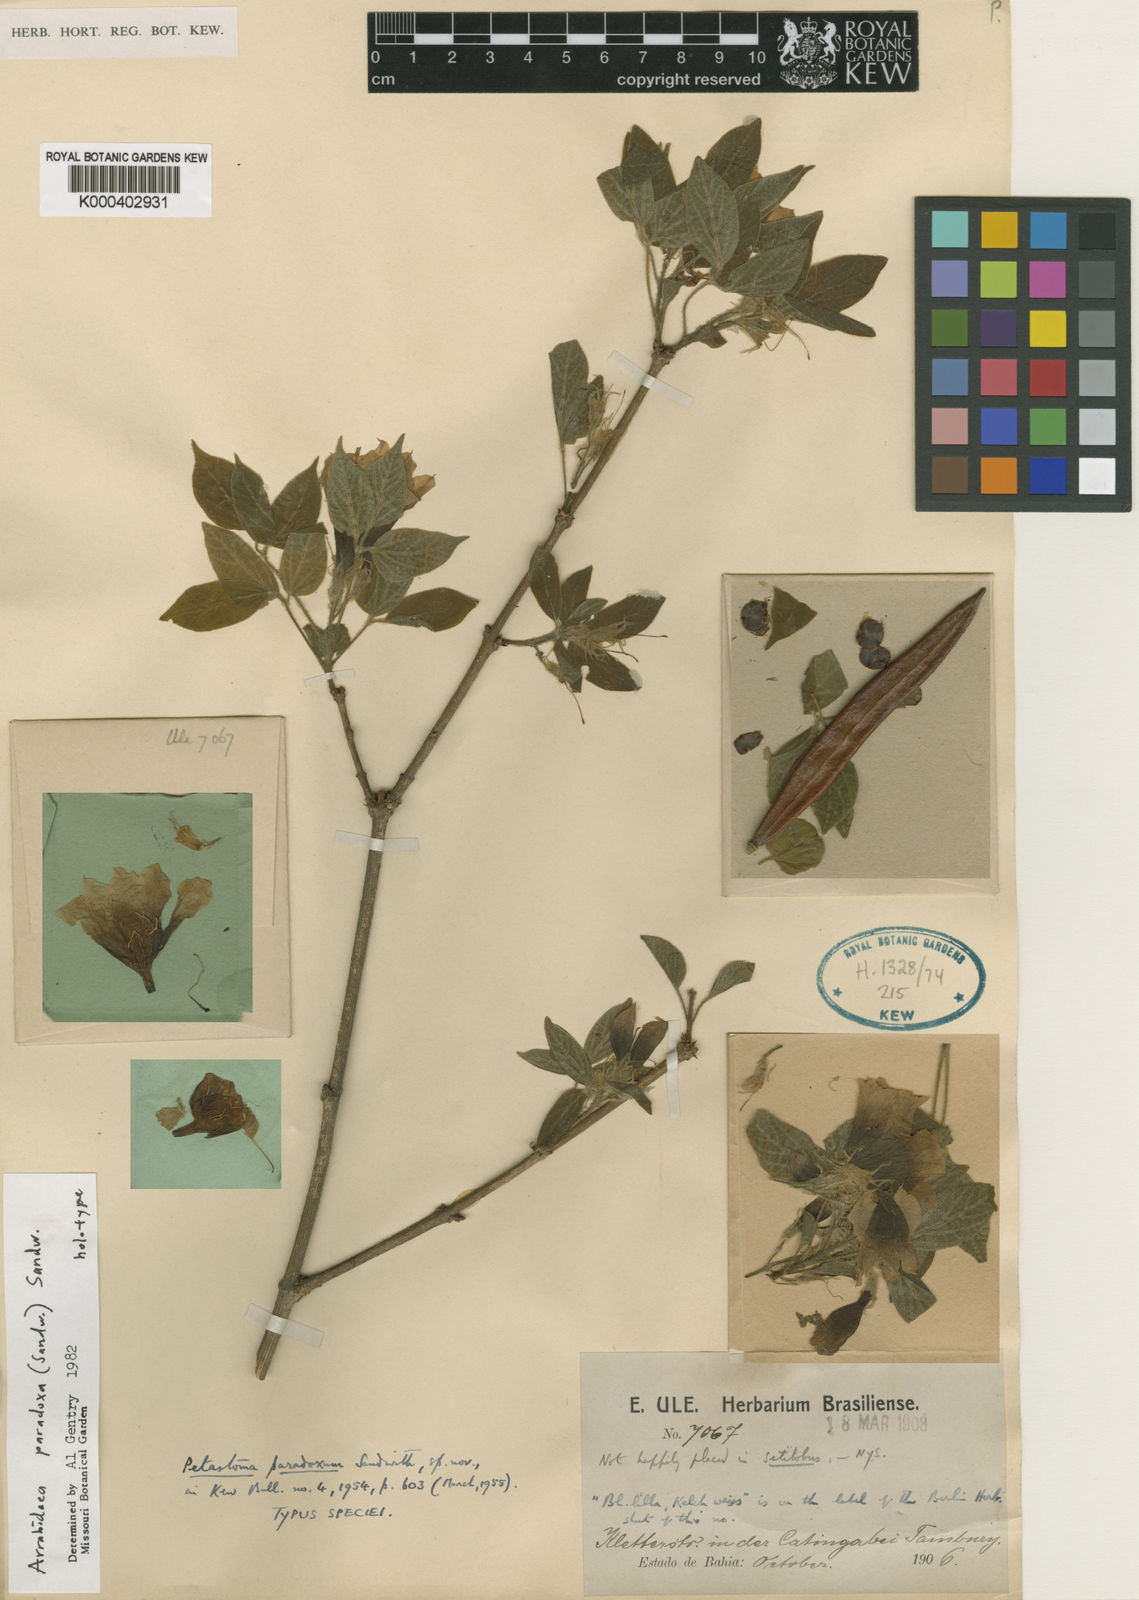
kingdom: Plantae
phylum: Tracheophyta
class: Magnoliopsida
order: Lamiales
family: Bignoniaceae
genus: Tanaecium
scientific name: Tanaecium paradoxum
